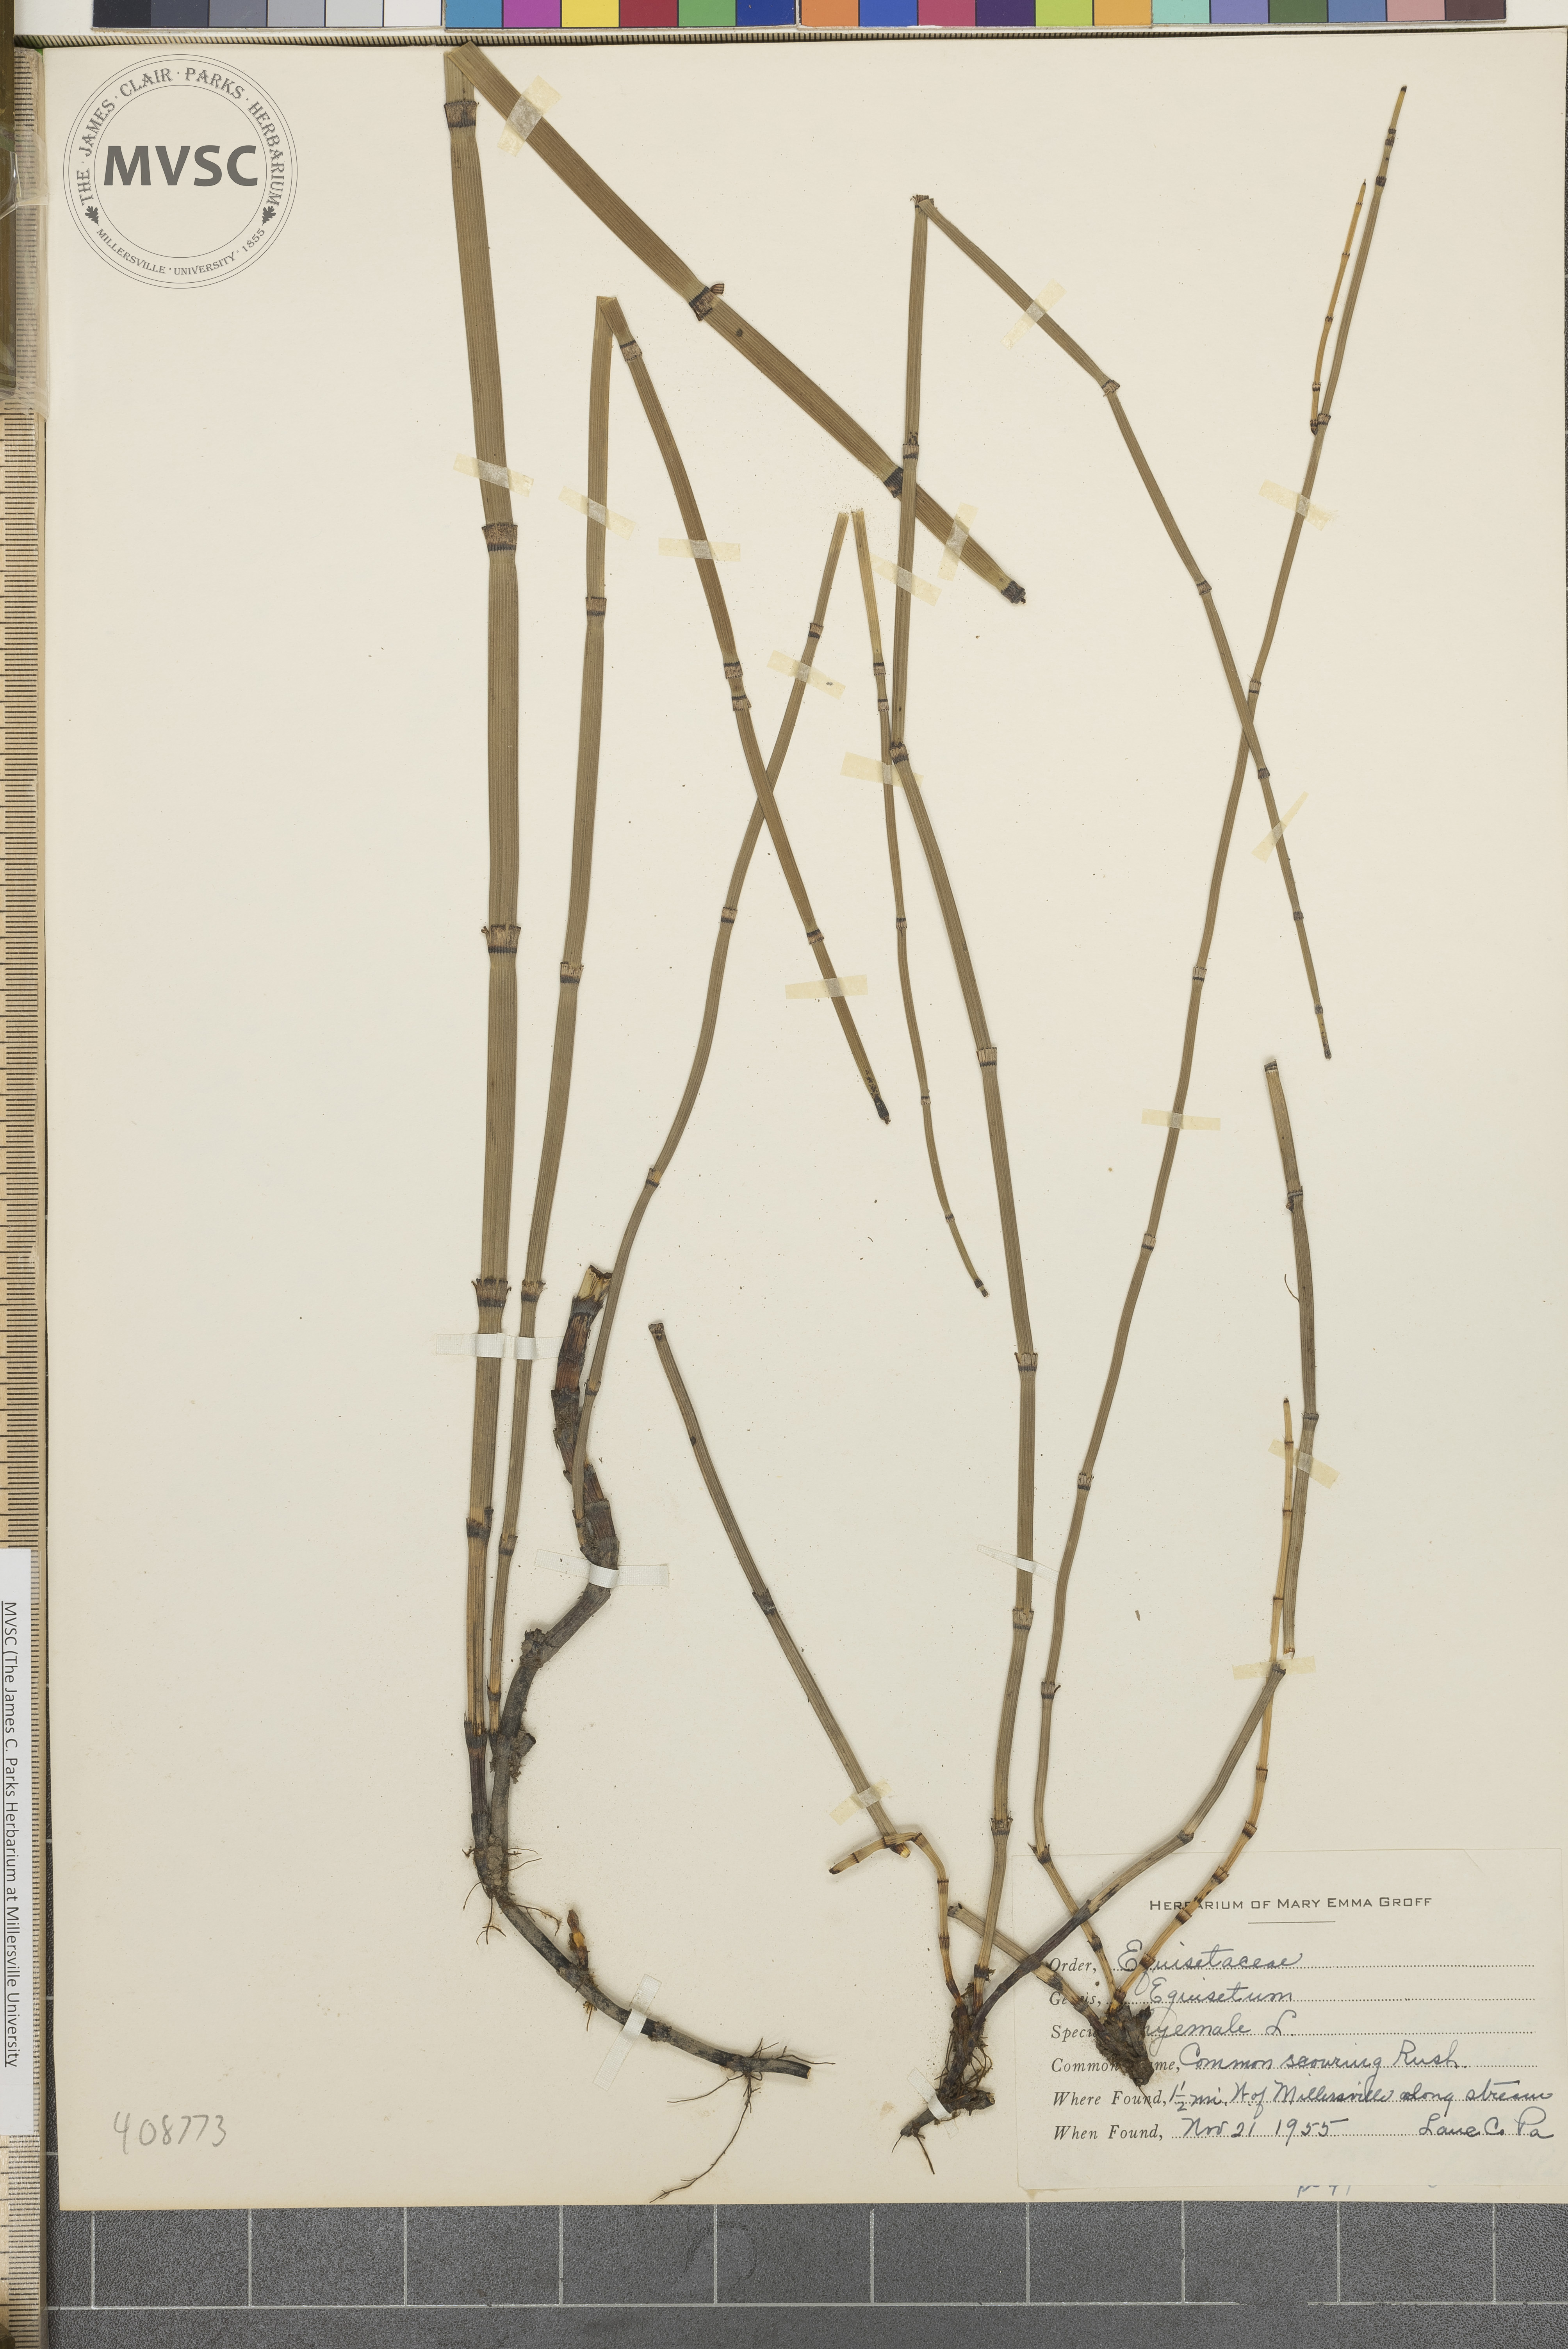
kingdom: Plantae
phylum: Tracheophyta
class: Polypodiopsida
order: Equisetales
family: Equisetaceae
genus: Equisetum
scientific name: Equisetum hyemale
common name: Rough horsetail
